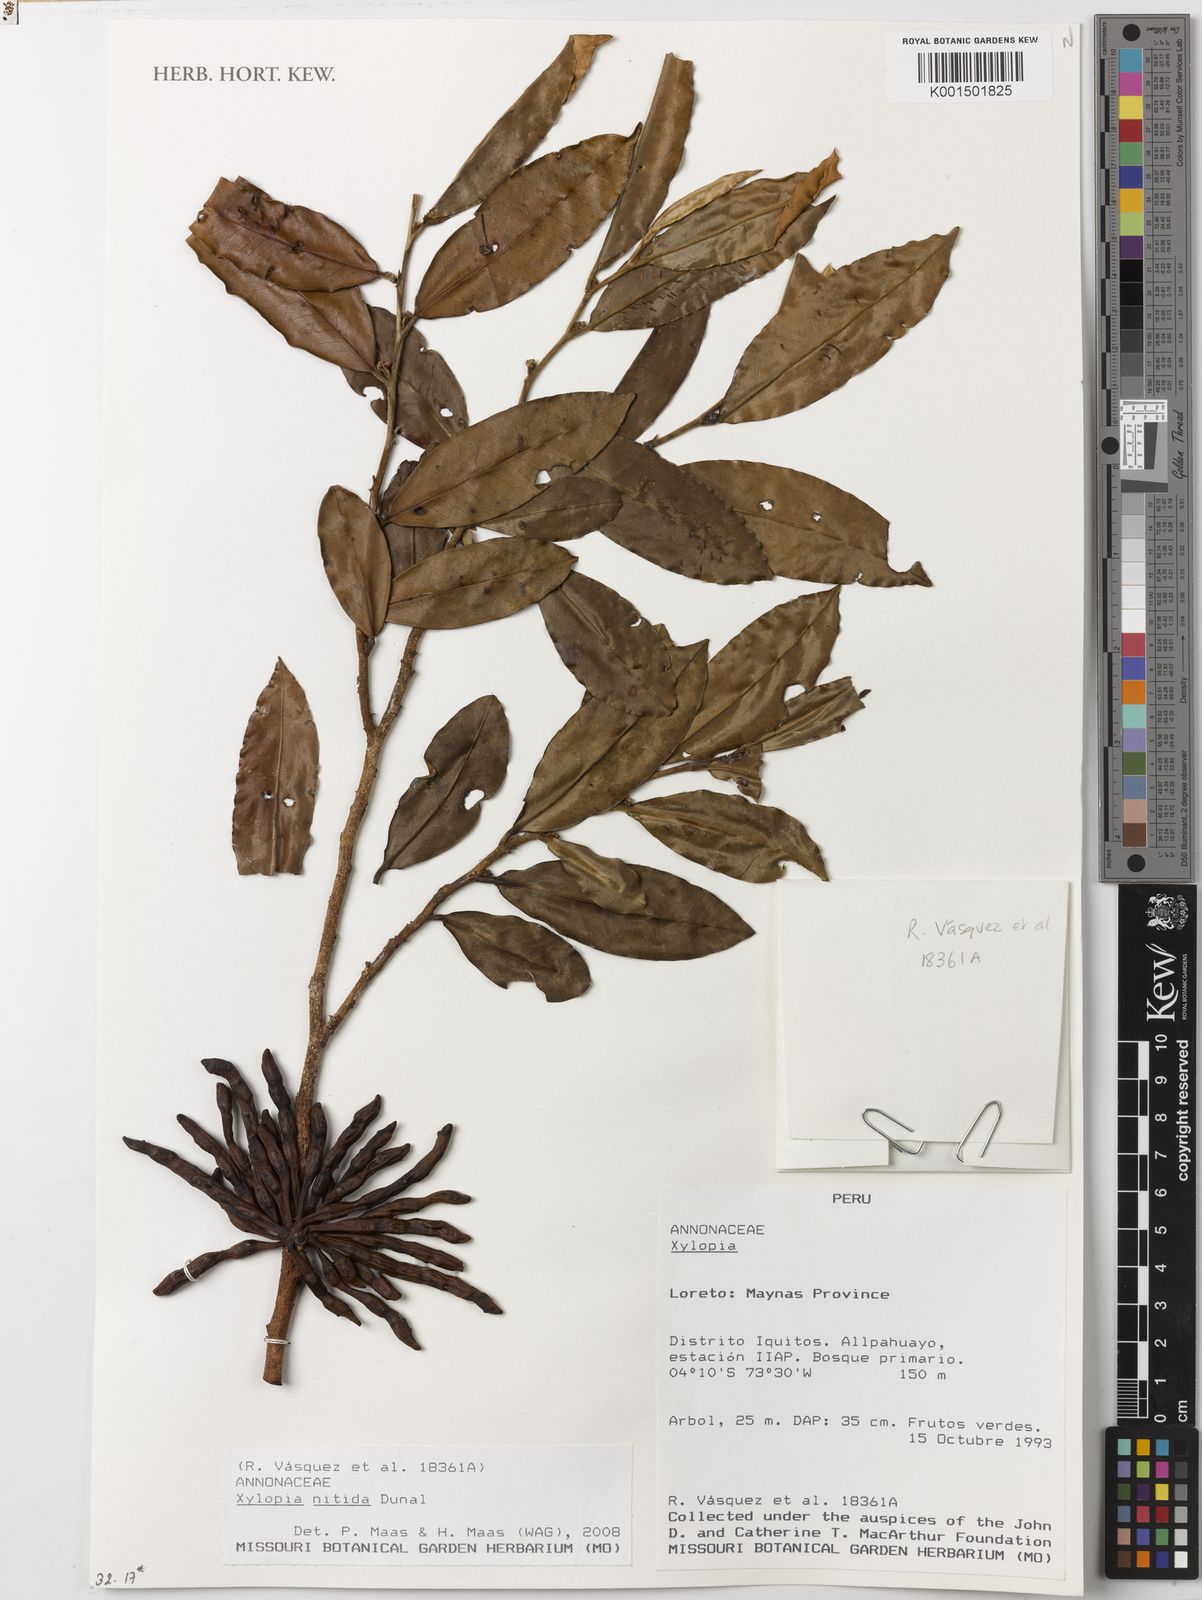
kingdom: Plantae
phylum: Tracheophyta
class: Magnoliopsida
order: Magnoliales
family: Annonaceae
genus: Xylopia
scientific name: Xylopia nitida
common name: White kuyama
